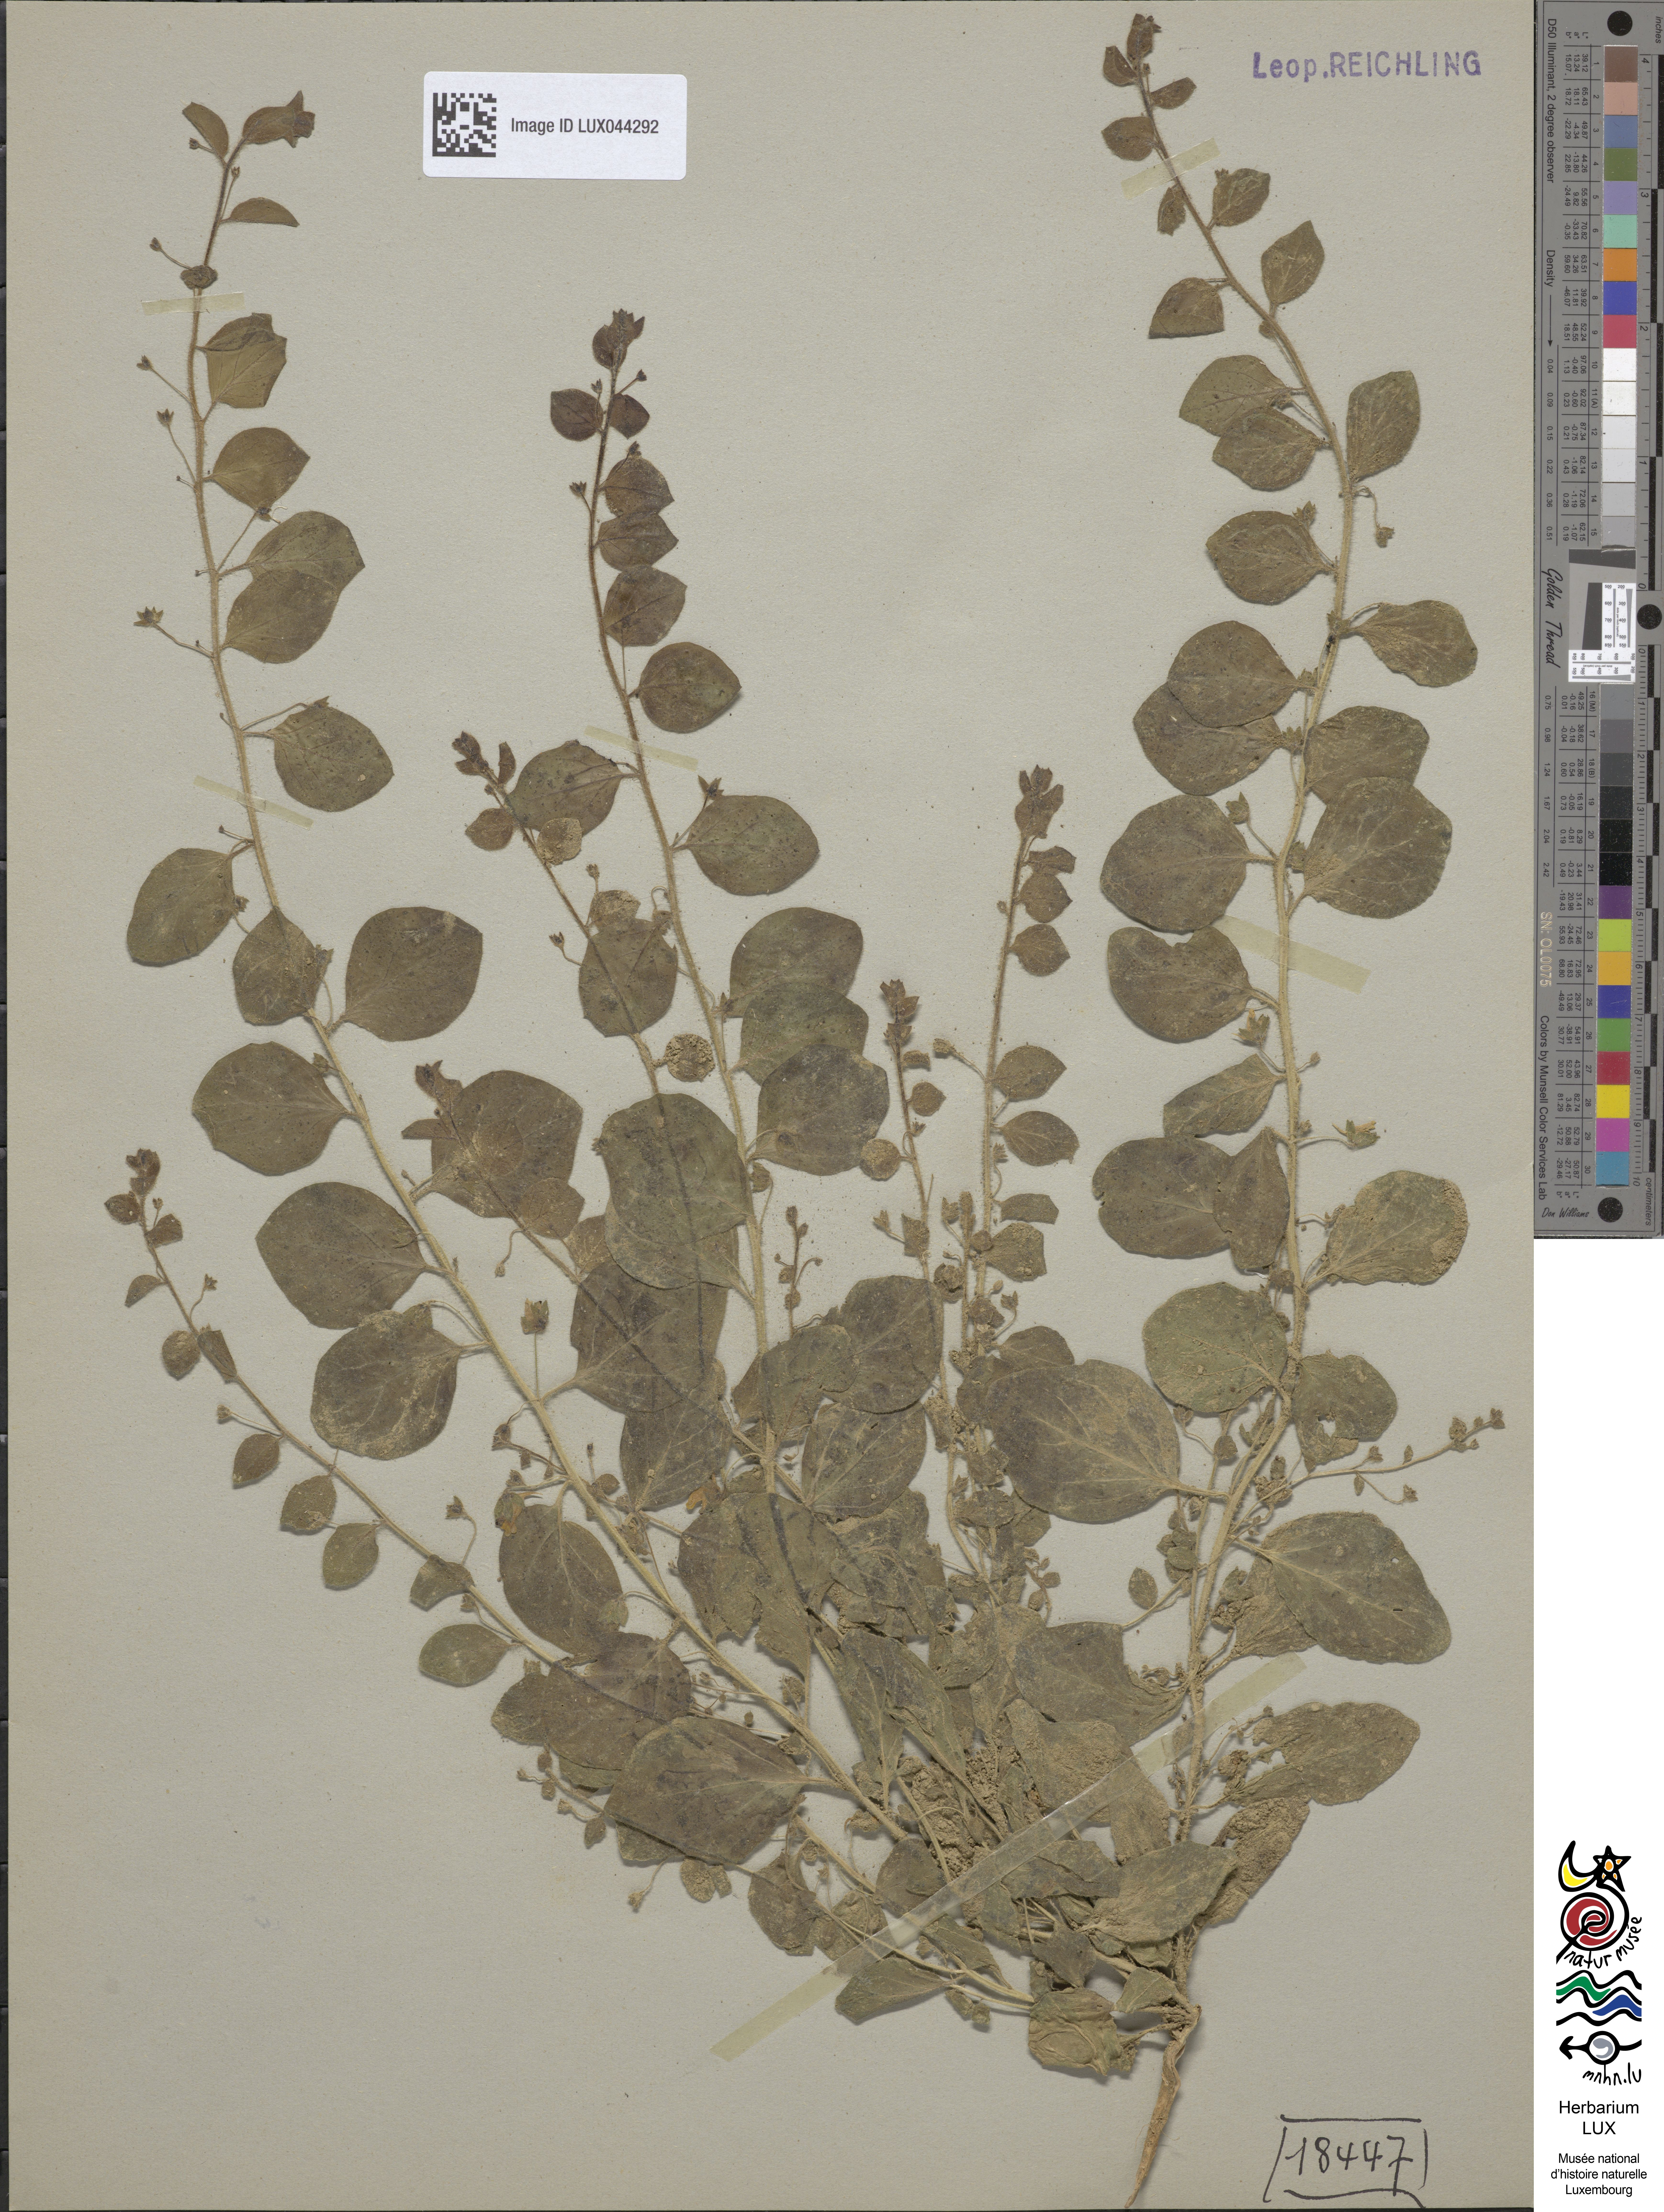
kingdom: Plantae
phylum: Tracheophyta
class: Magnoliopsida
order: Lamiales
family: Plantaginaceae
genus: Kickxia
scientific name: Kickxia spuria
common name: Round-leaved fluellen
